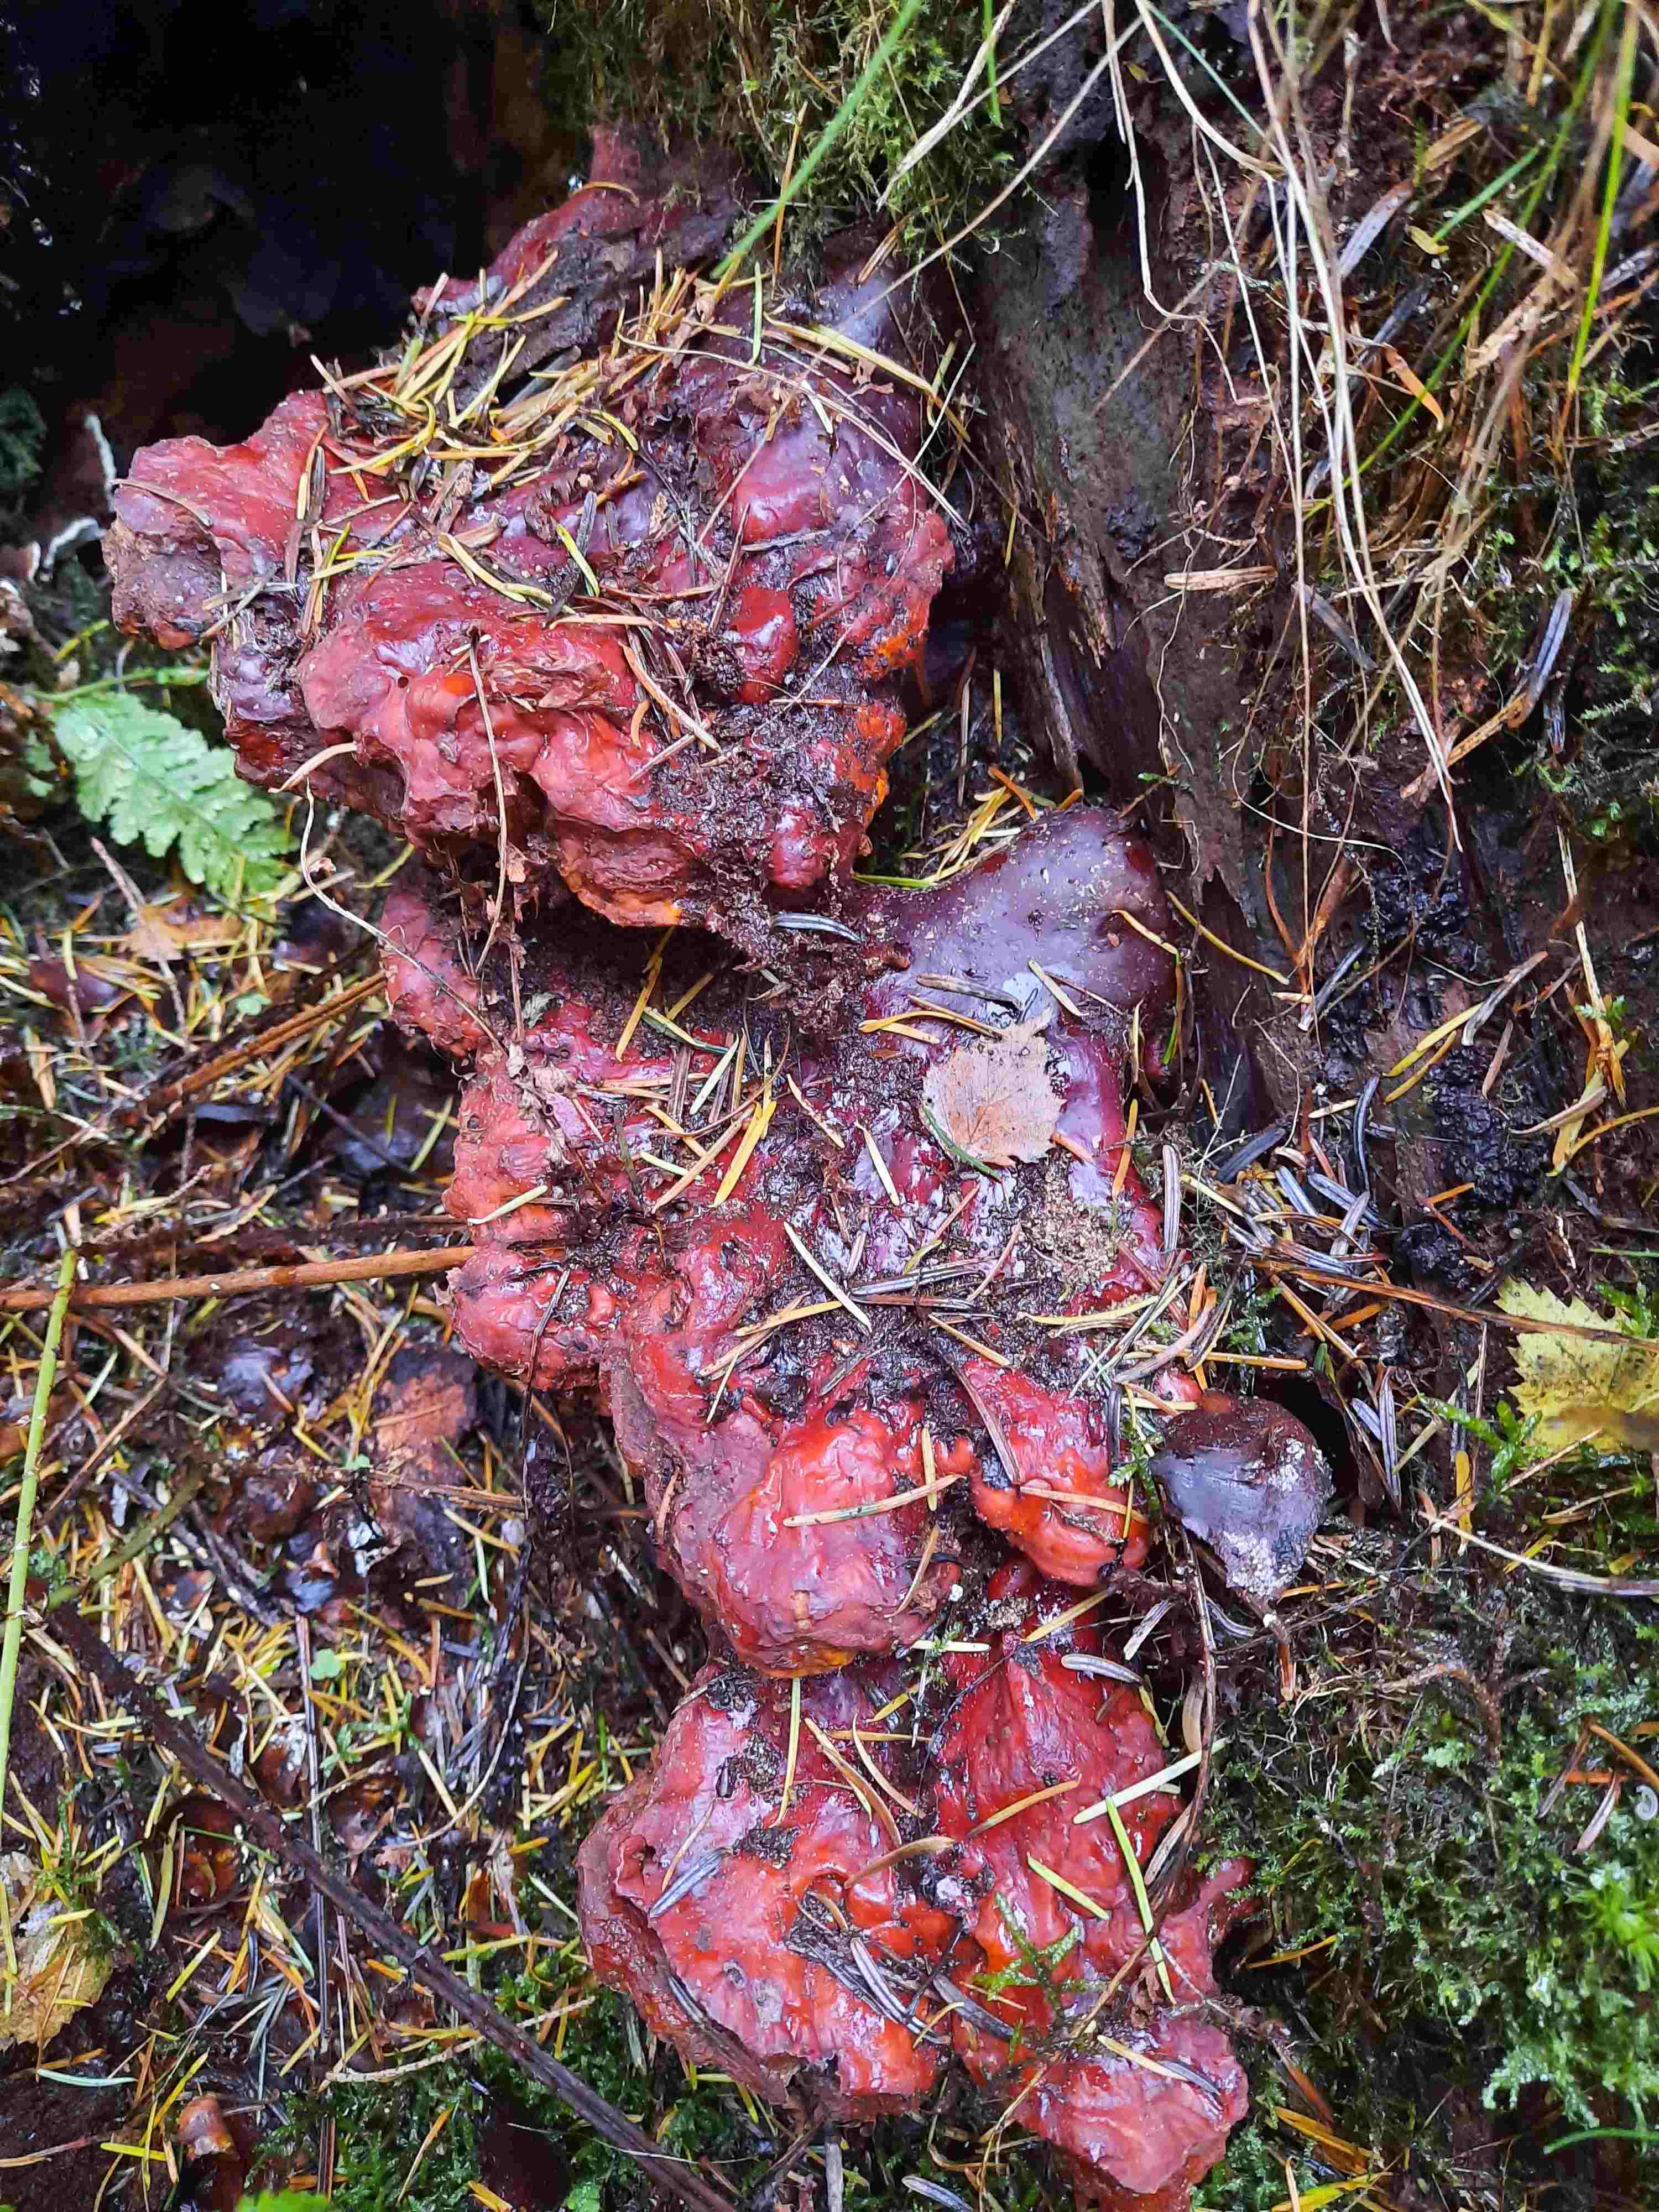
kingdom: Fungi
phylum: Basidiomycota
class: Agaricomycetes
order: Polyporales
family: Polyporaceae
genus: Ganoderma
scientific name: Ganoderma lucidum
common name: skinnende lakporesvamp
